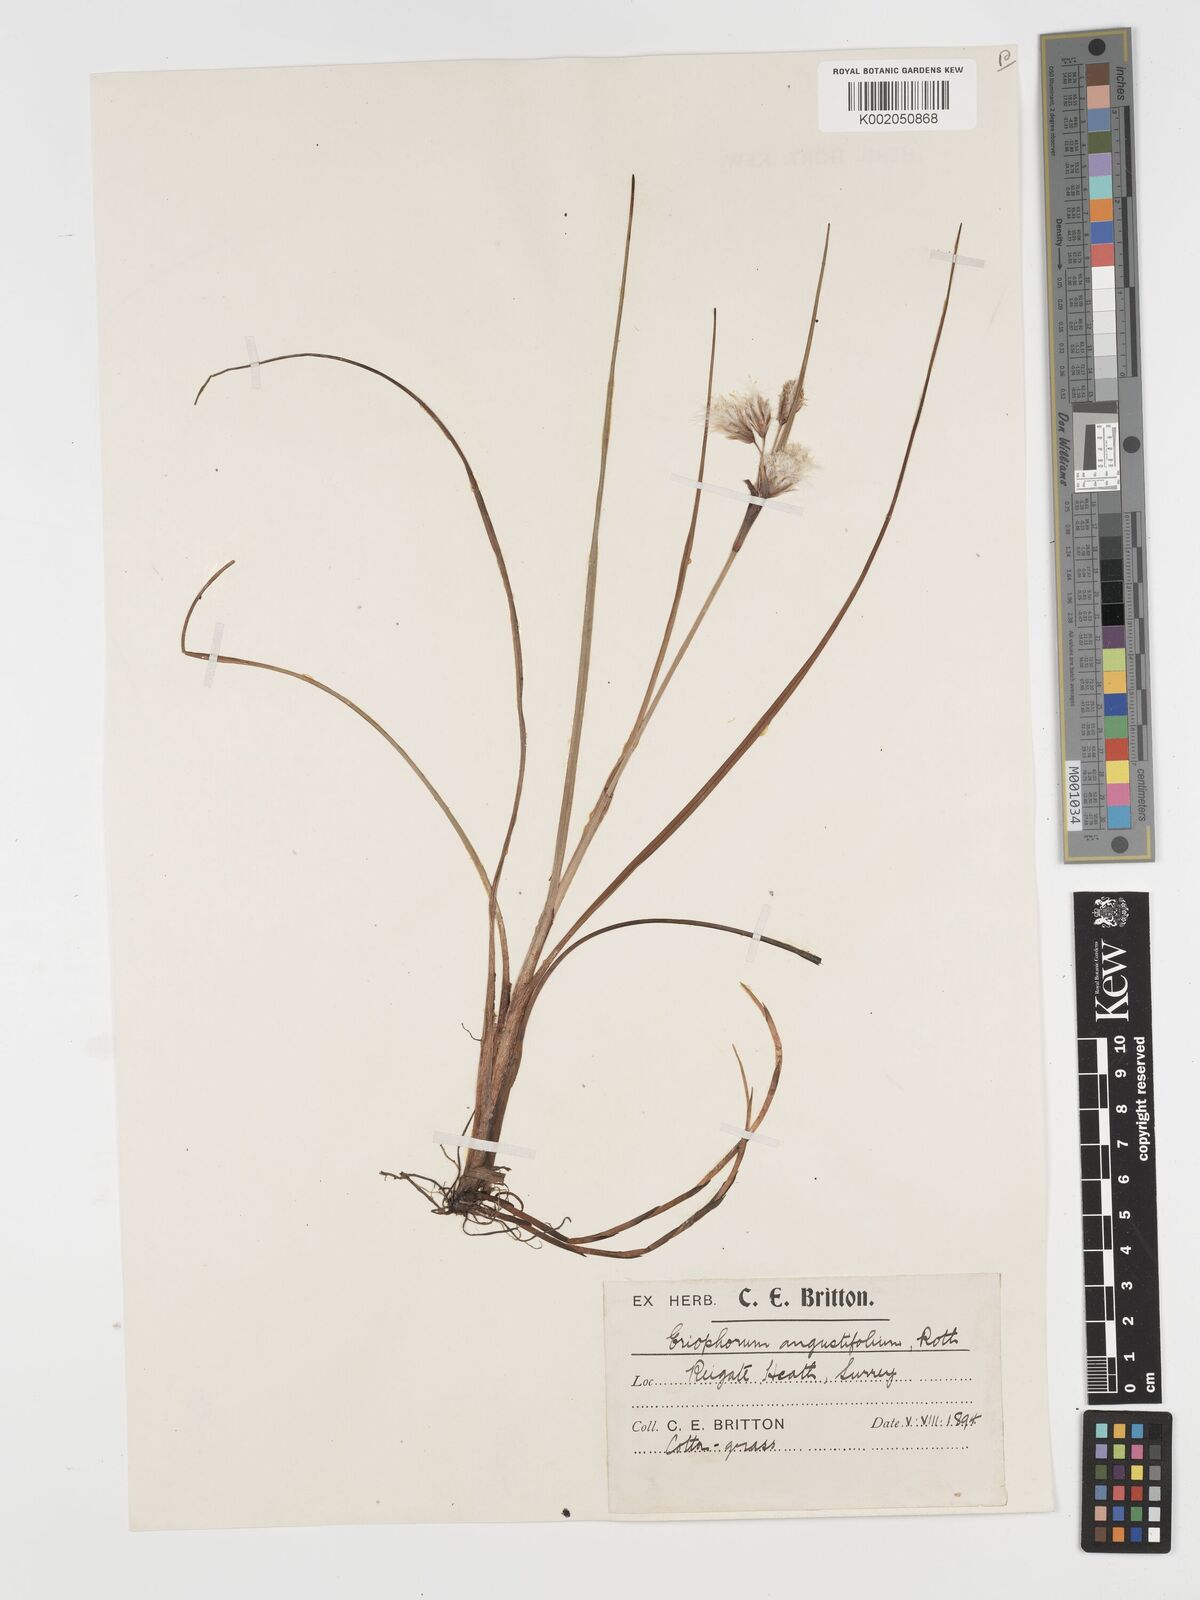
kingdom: Plantae
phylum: Tracheophyta
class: Liliopsida
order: Poales
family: Cyperaceae
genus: Eriophorum
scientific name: Eriophorum angustifolium
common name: Common cottongrass
